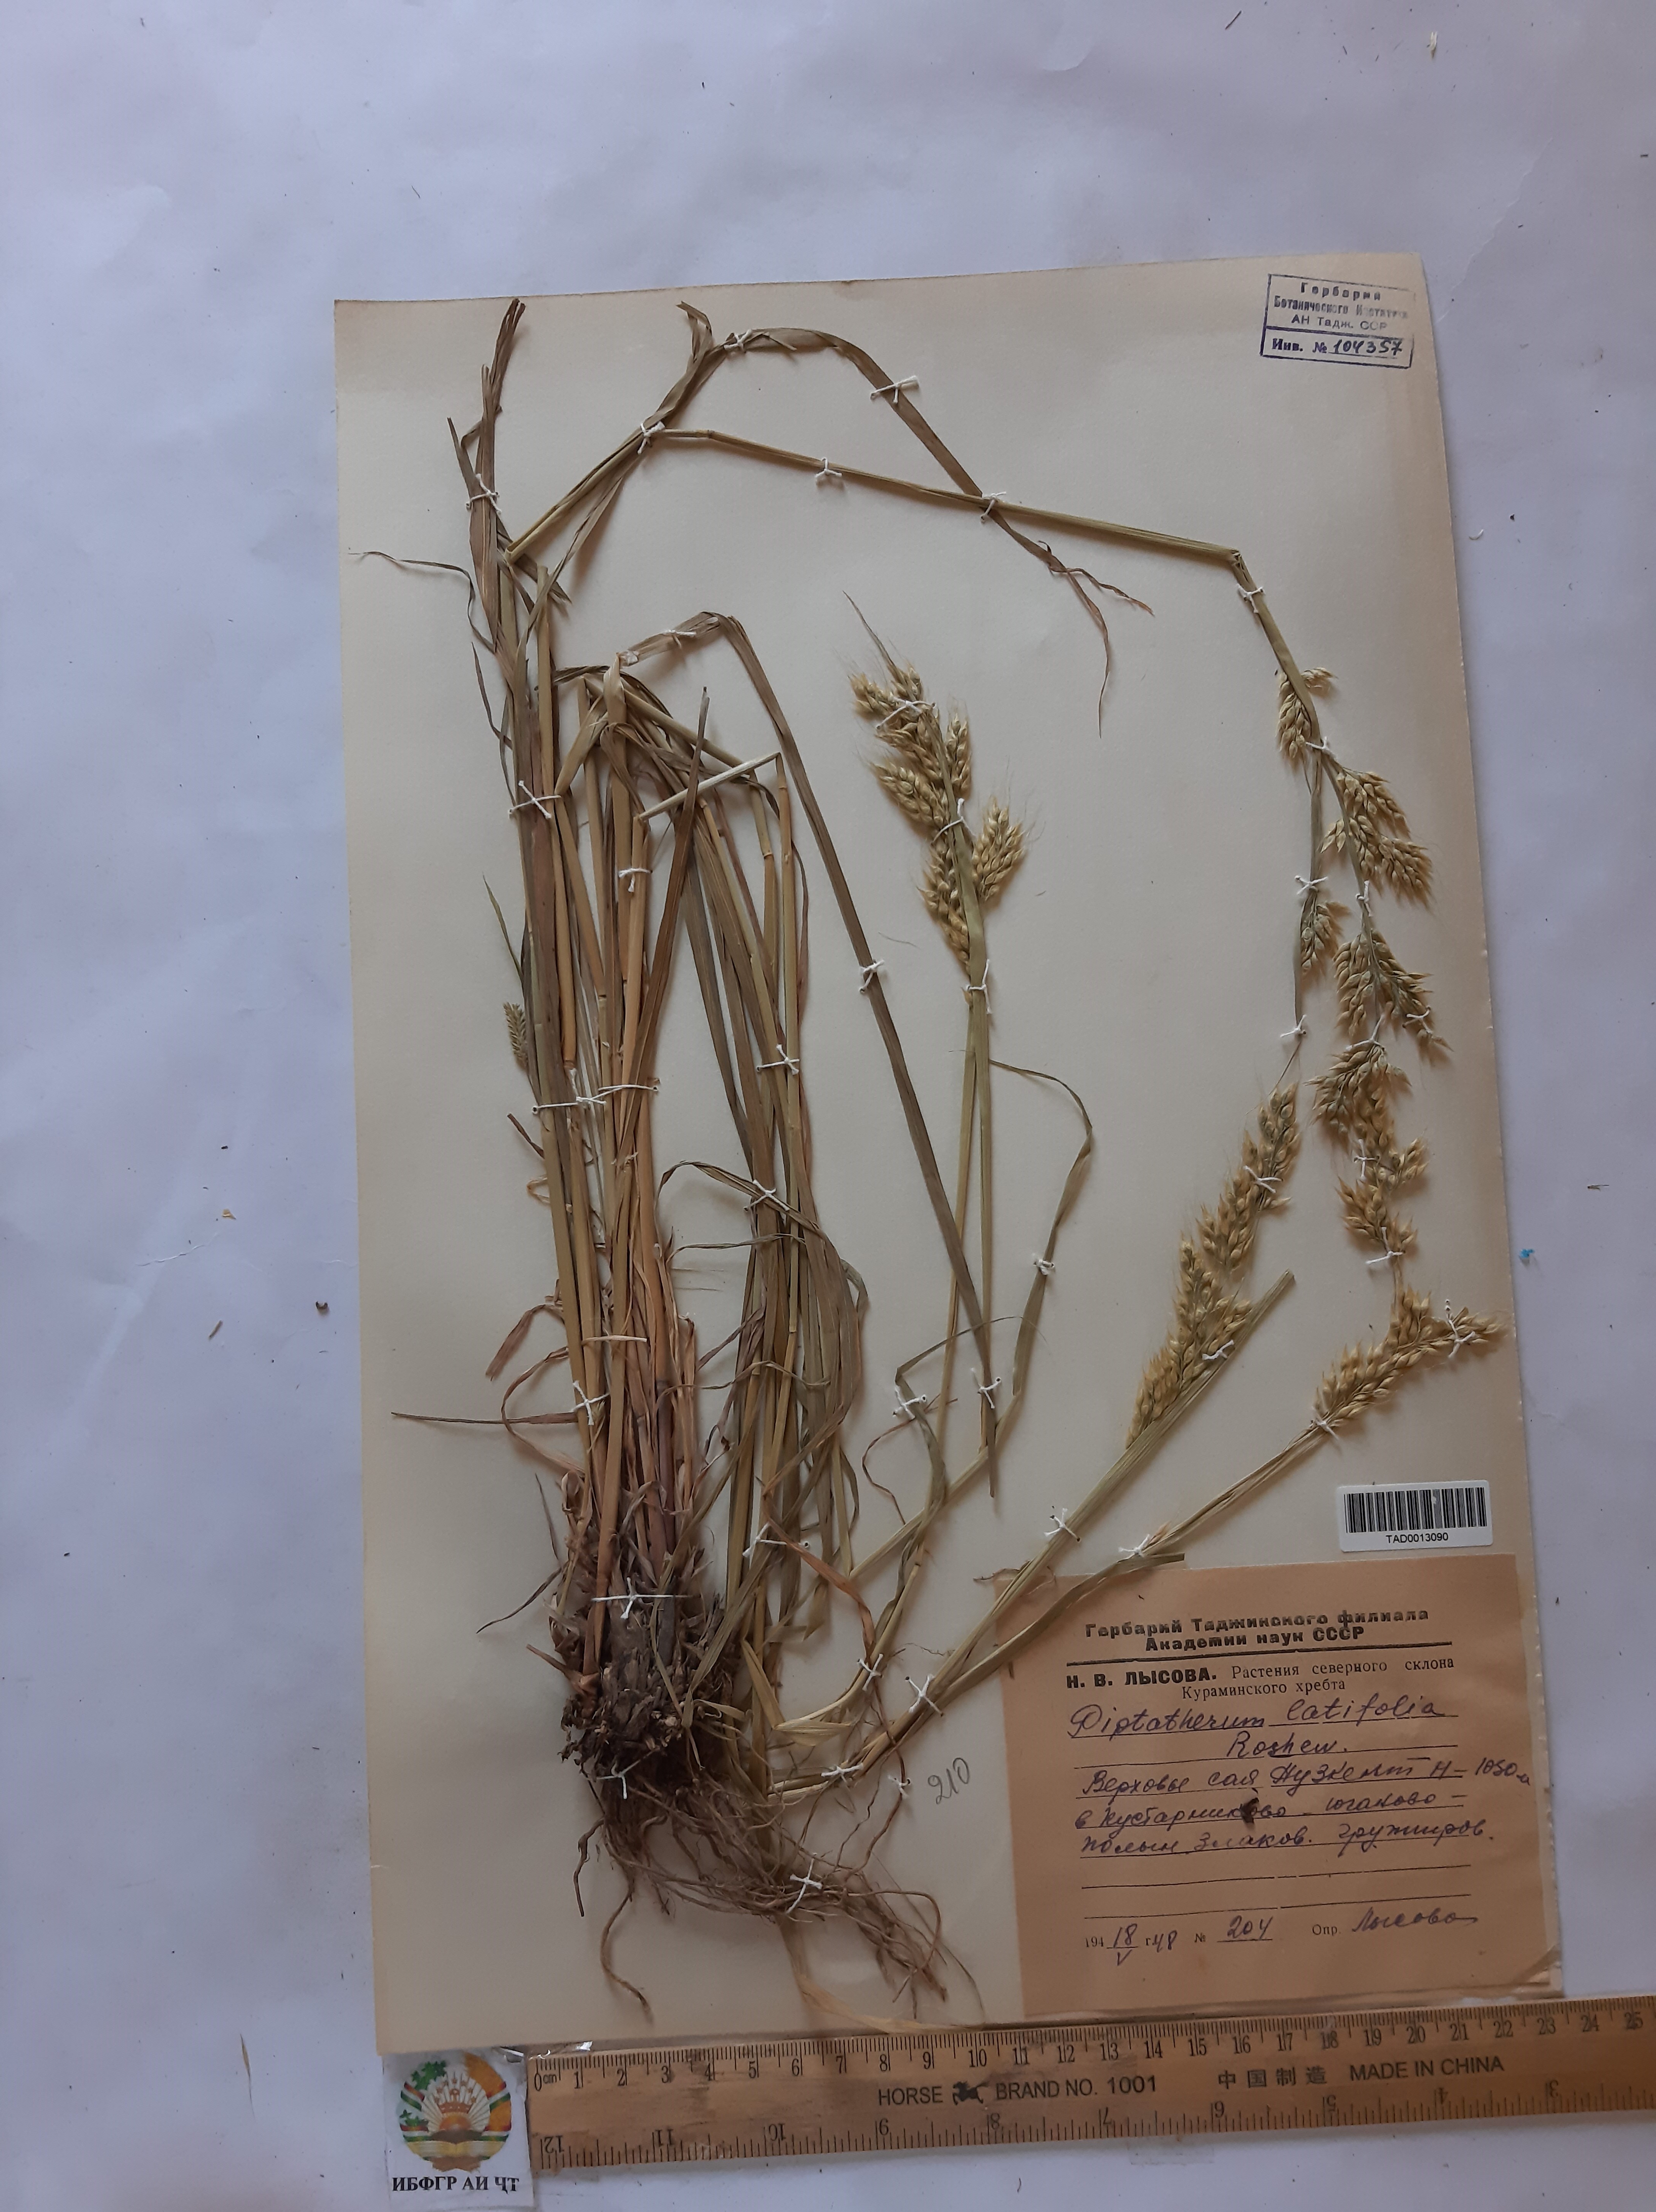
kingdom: Plantae
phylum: Tracheophyta
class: Liliopsida
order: Poales
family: Poaceae
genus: Piptatherum
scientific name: Piptatherum latifolium
